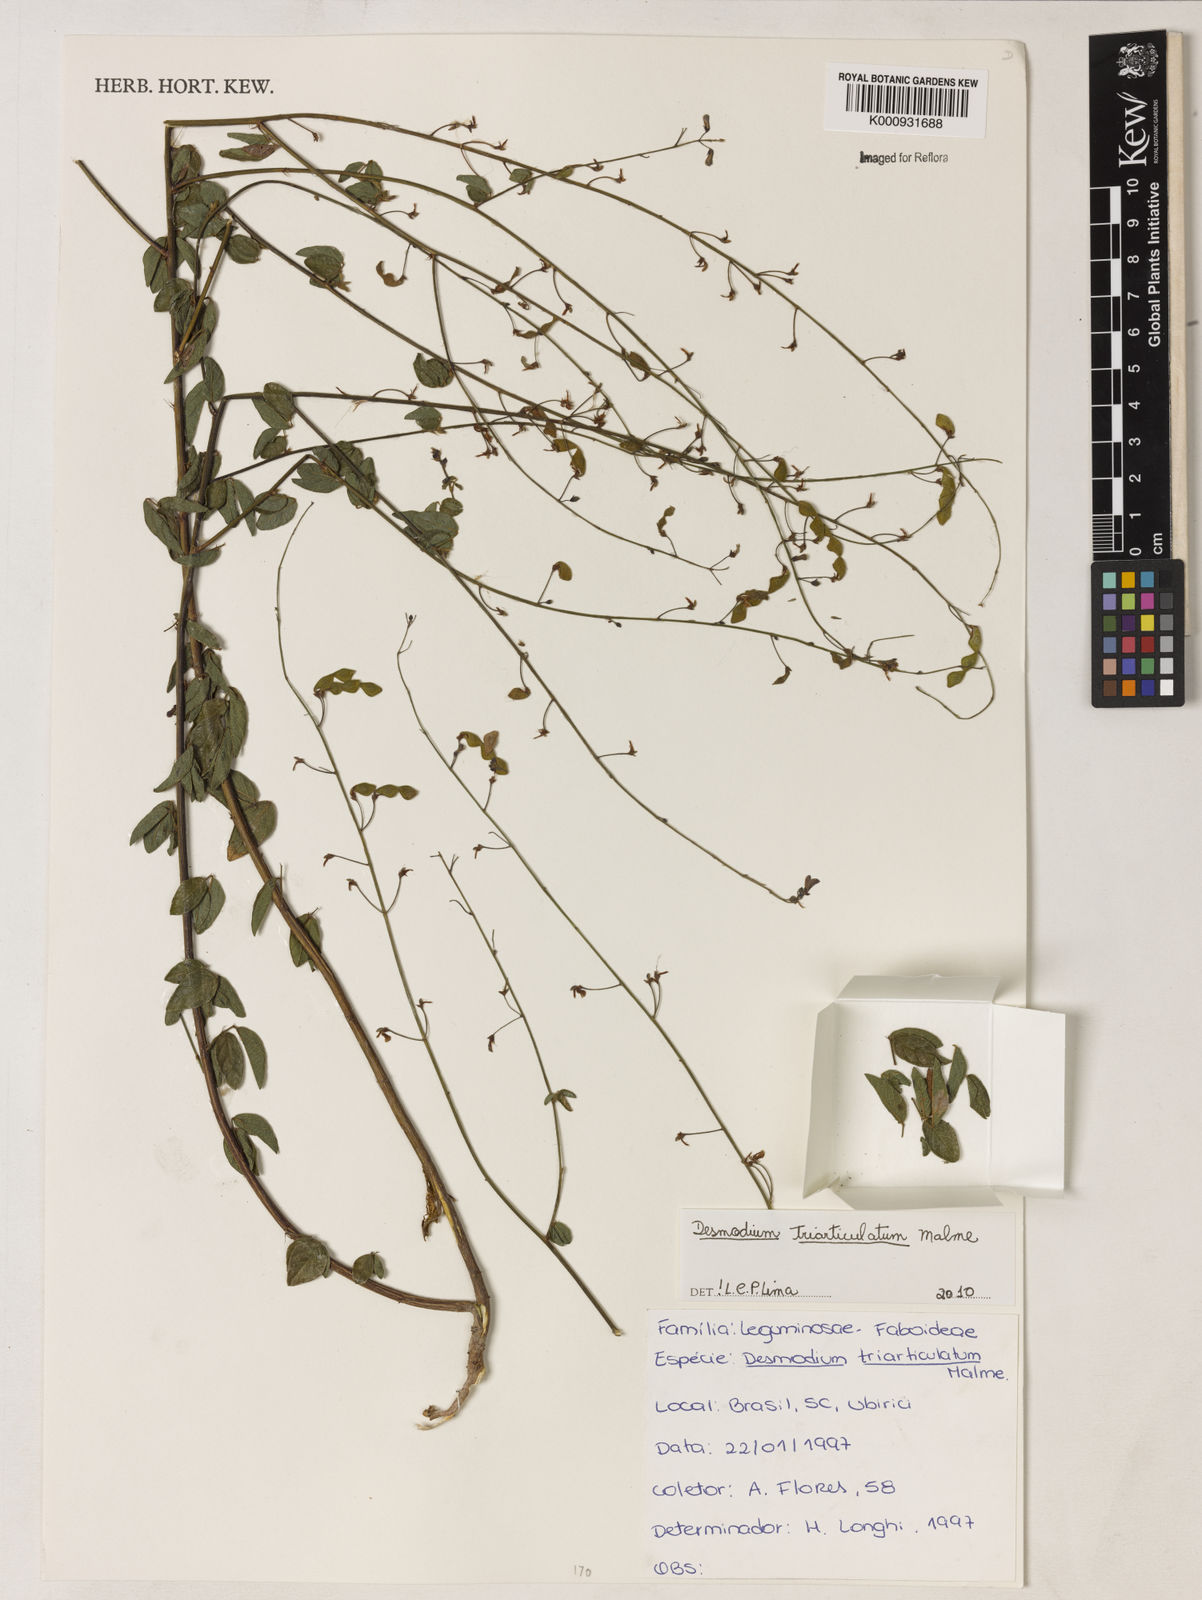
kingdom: Plantae
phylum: Tracheophyta
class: Magnoliopsida
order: Fabales
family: Fabaceae
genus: Desmodium
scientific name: Desmodium triarticulatum
